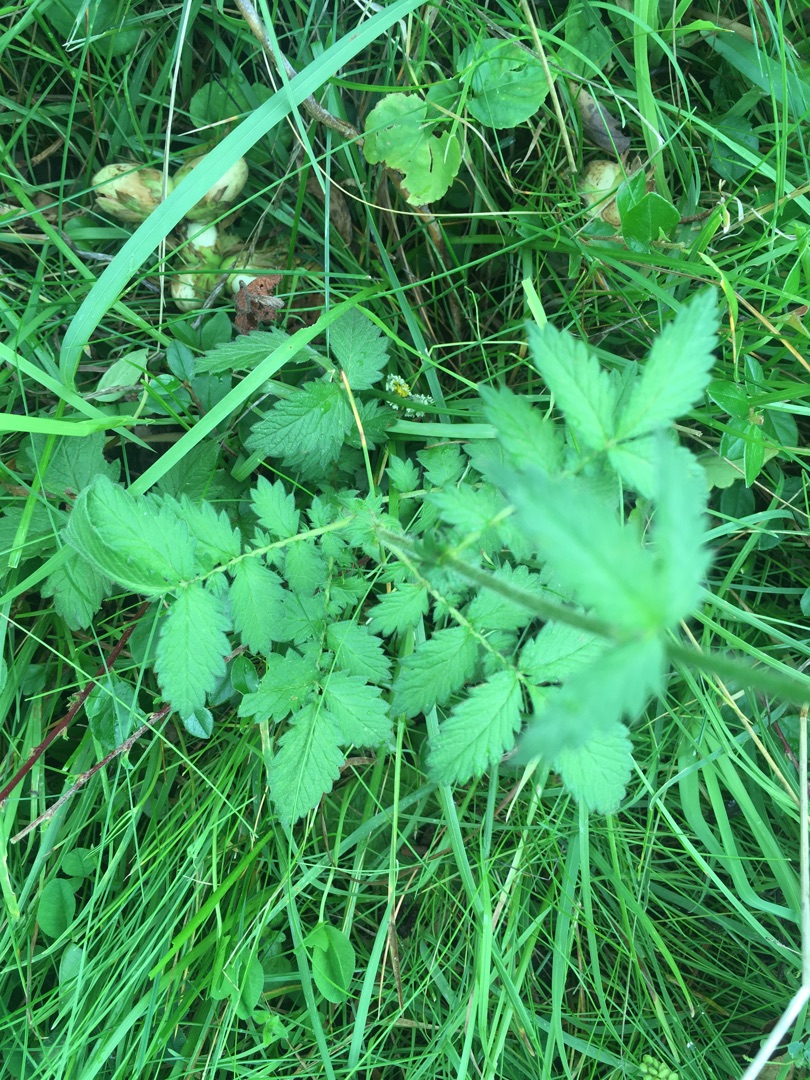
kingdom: Plantae
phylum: Tracheophyta
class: Magnoliopsida
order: Rosales
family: Rosaceae
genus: Agrimonia
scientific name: Agrimonia eupatoria
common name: Almindelig agermåne
